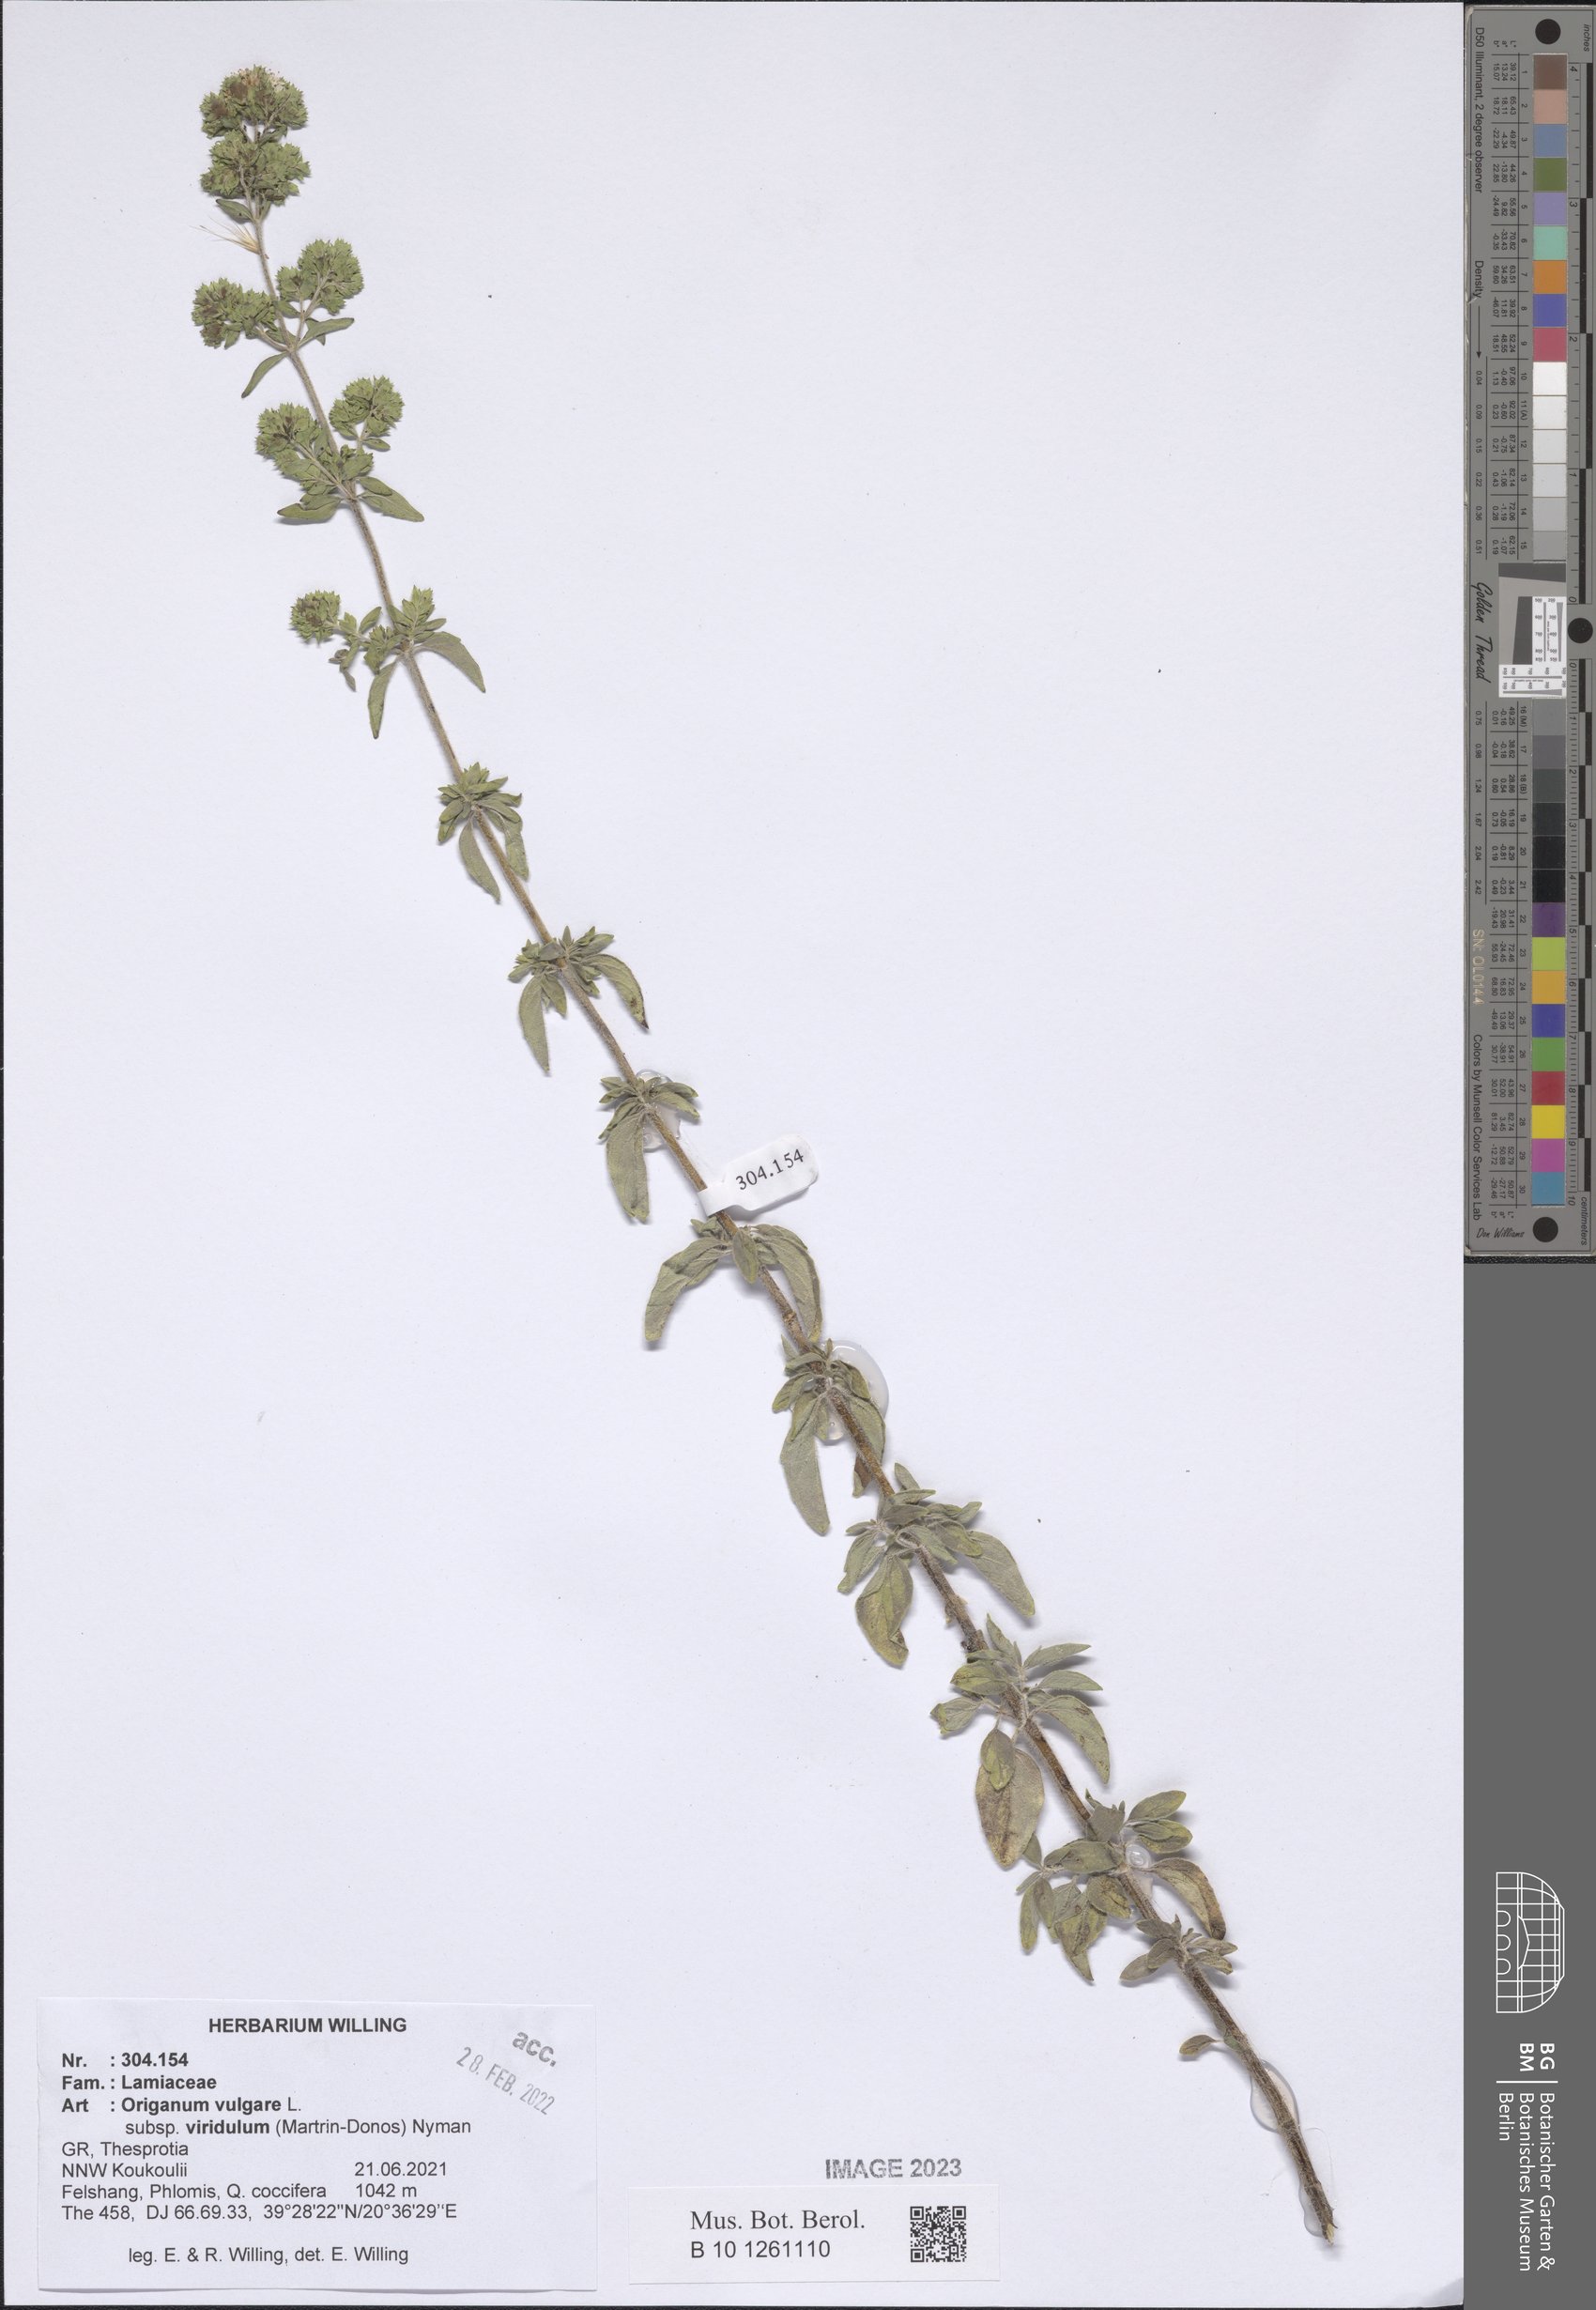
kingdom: Plantae
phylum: Tracheophyta
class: Magnoliopsida
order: Lamiales
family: Lamiaceae
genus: Origanum
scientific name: Origanum vulgare
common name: Wild marjoram
